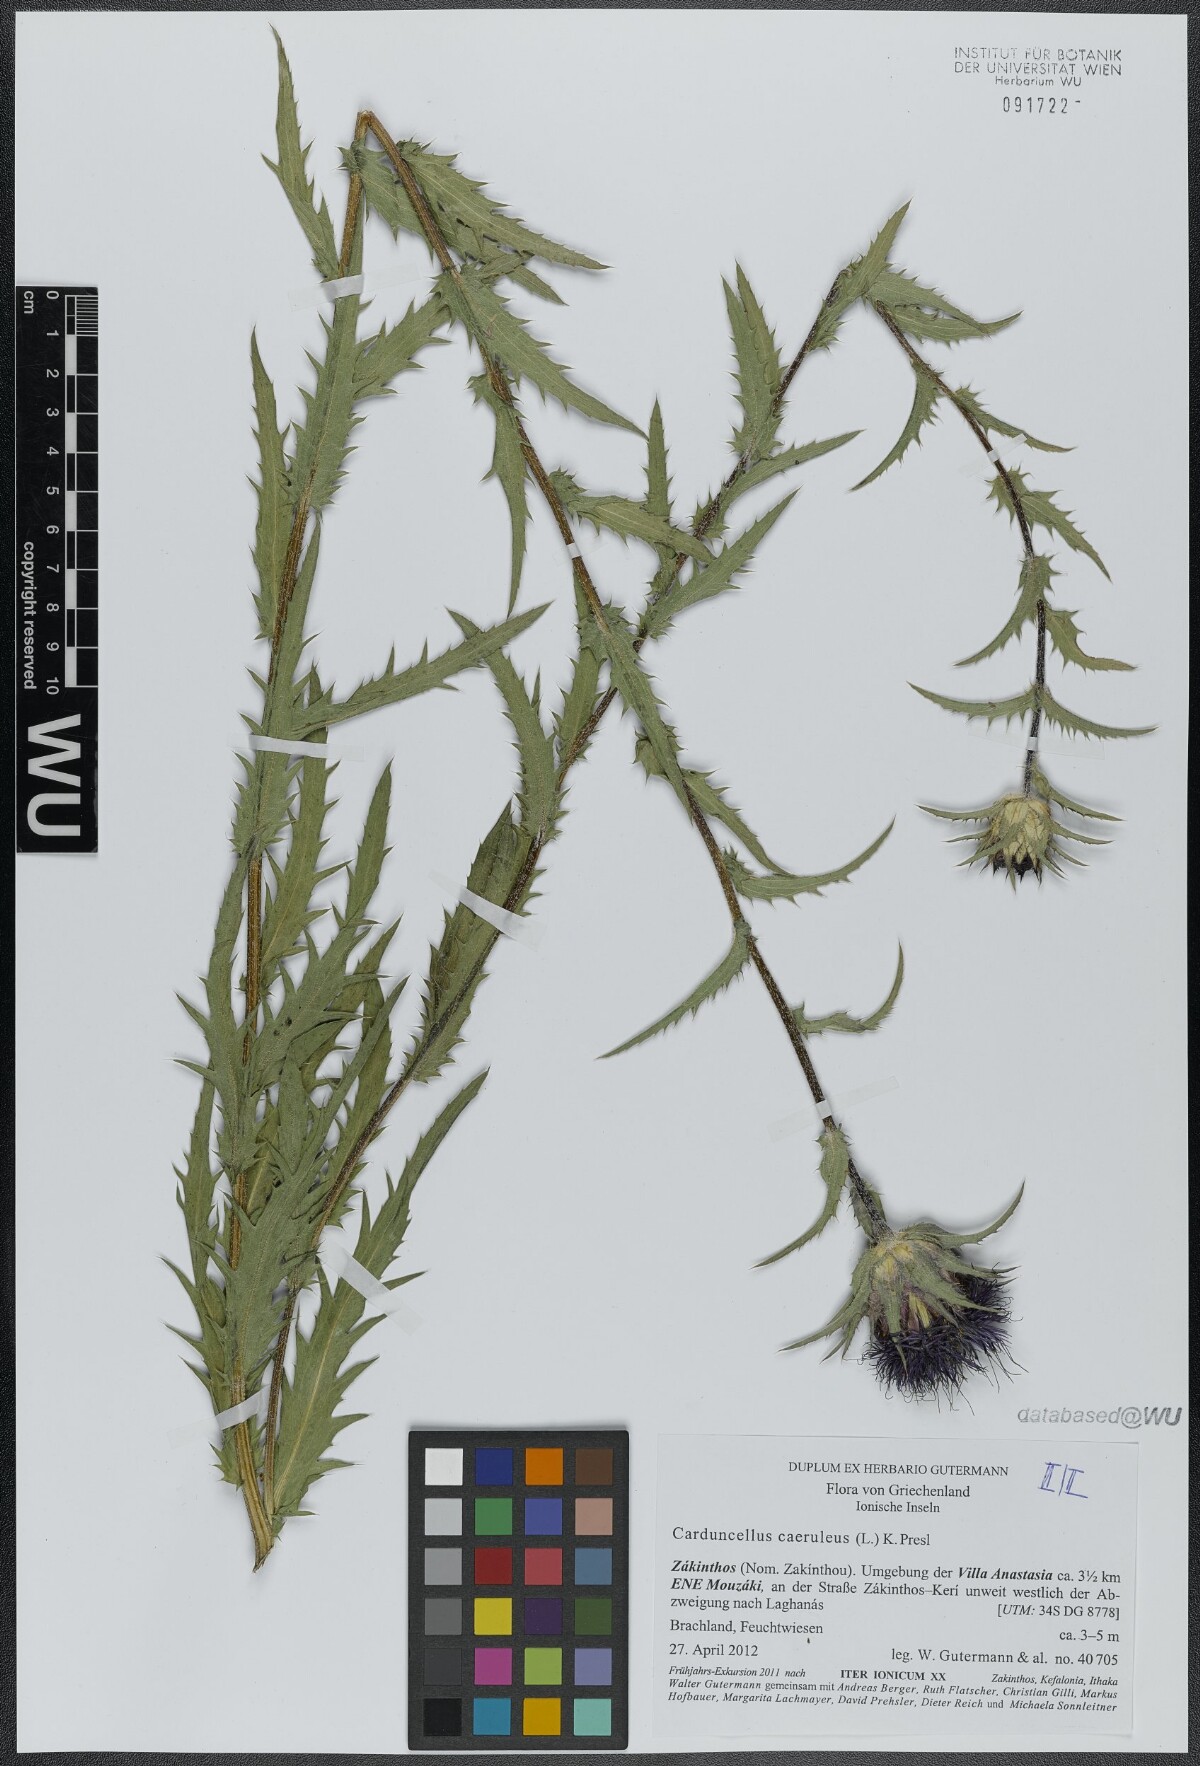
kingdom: Plantae
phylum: Tracheophyta
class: Magnoliopsida
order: Asterales
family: Asteraceae
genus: Carduncellus
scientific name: Carduncellus caeruleus
